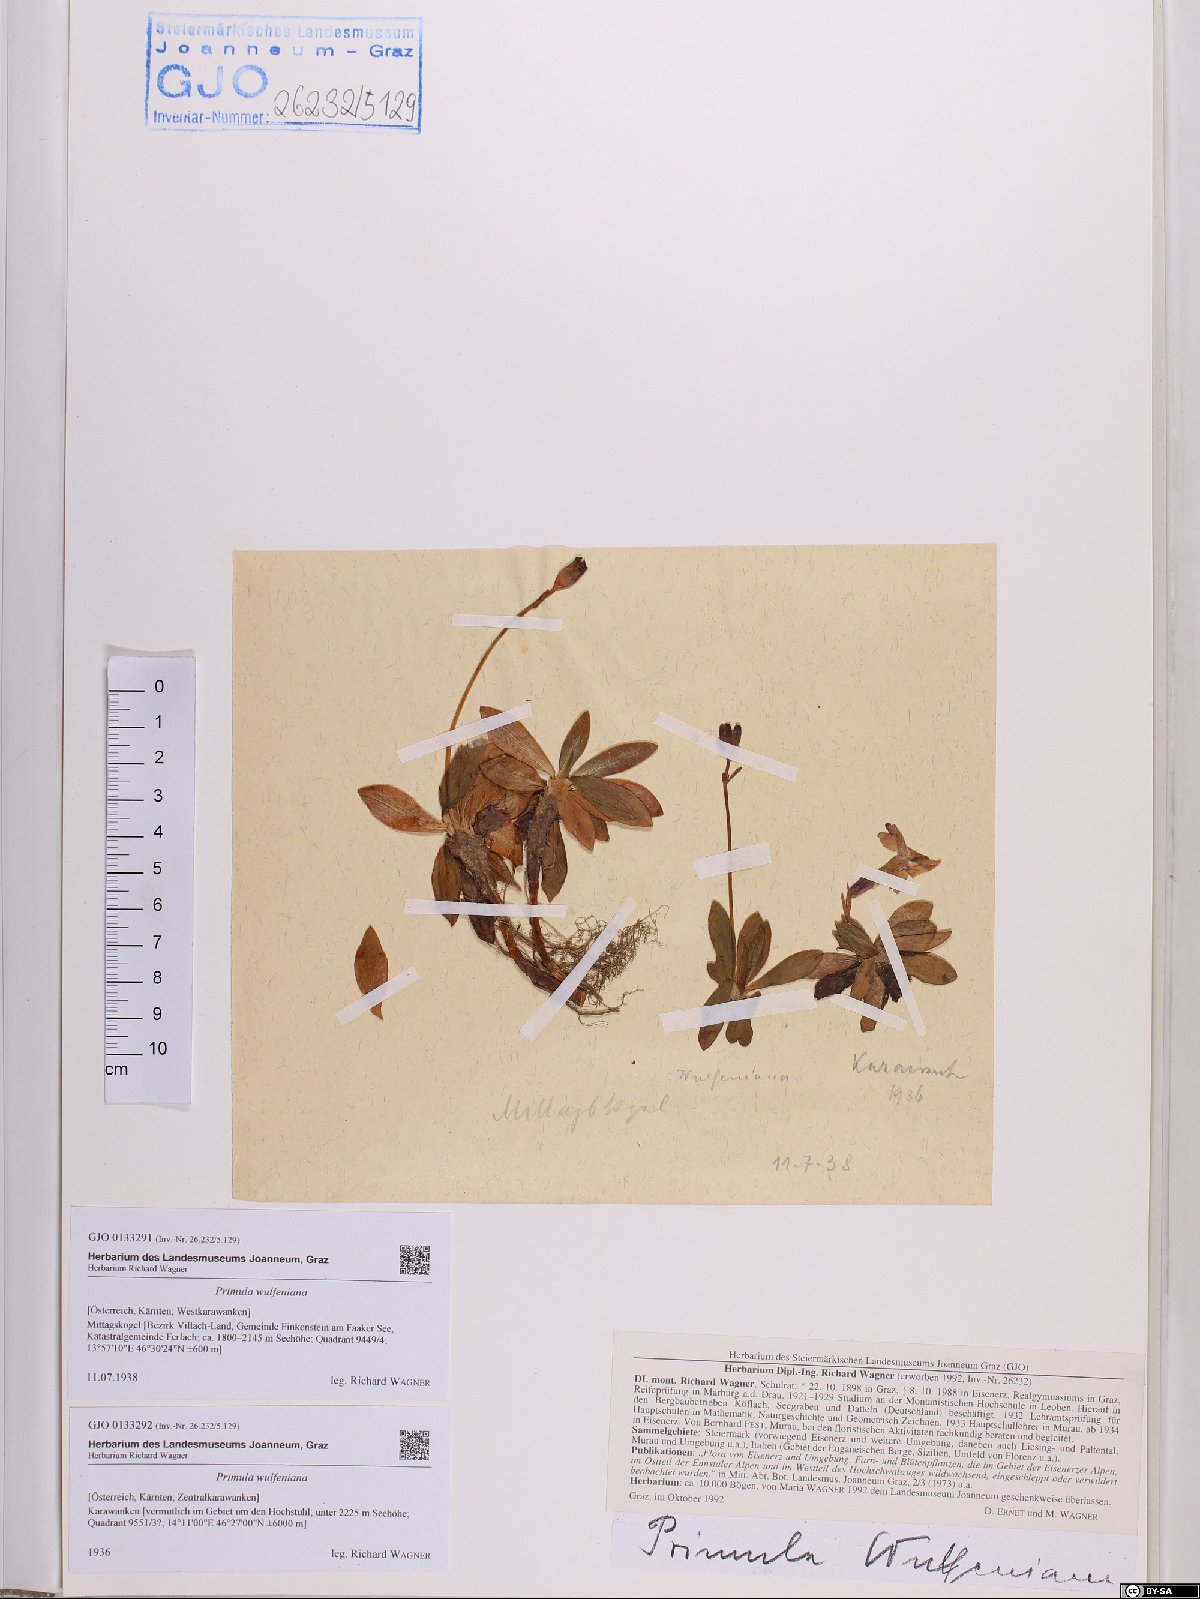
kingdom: Plantae
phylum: Tracheophyta
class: Magnoliopsida
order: Ericales
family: Primulaceae
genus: Primula
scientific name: Primula wulfeniana
